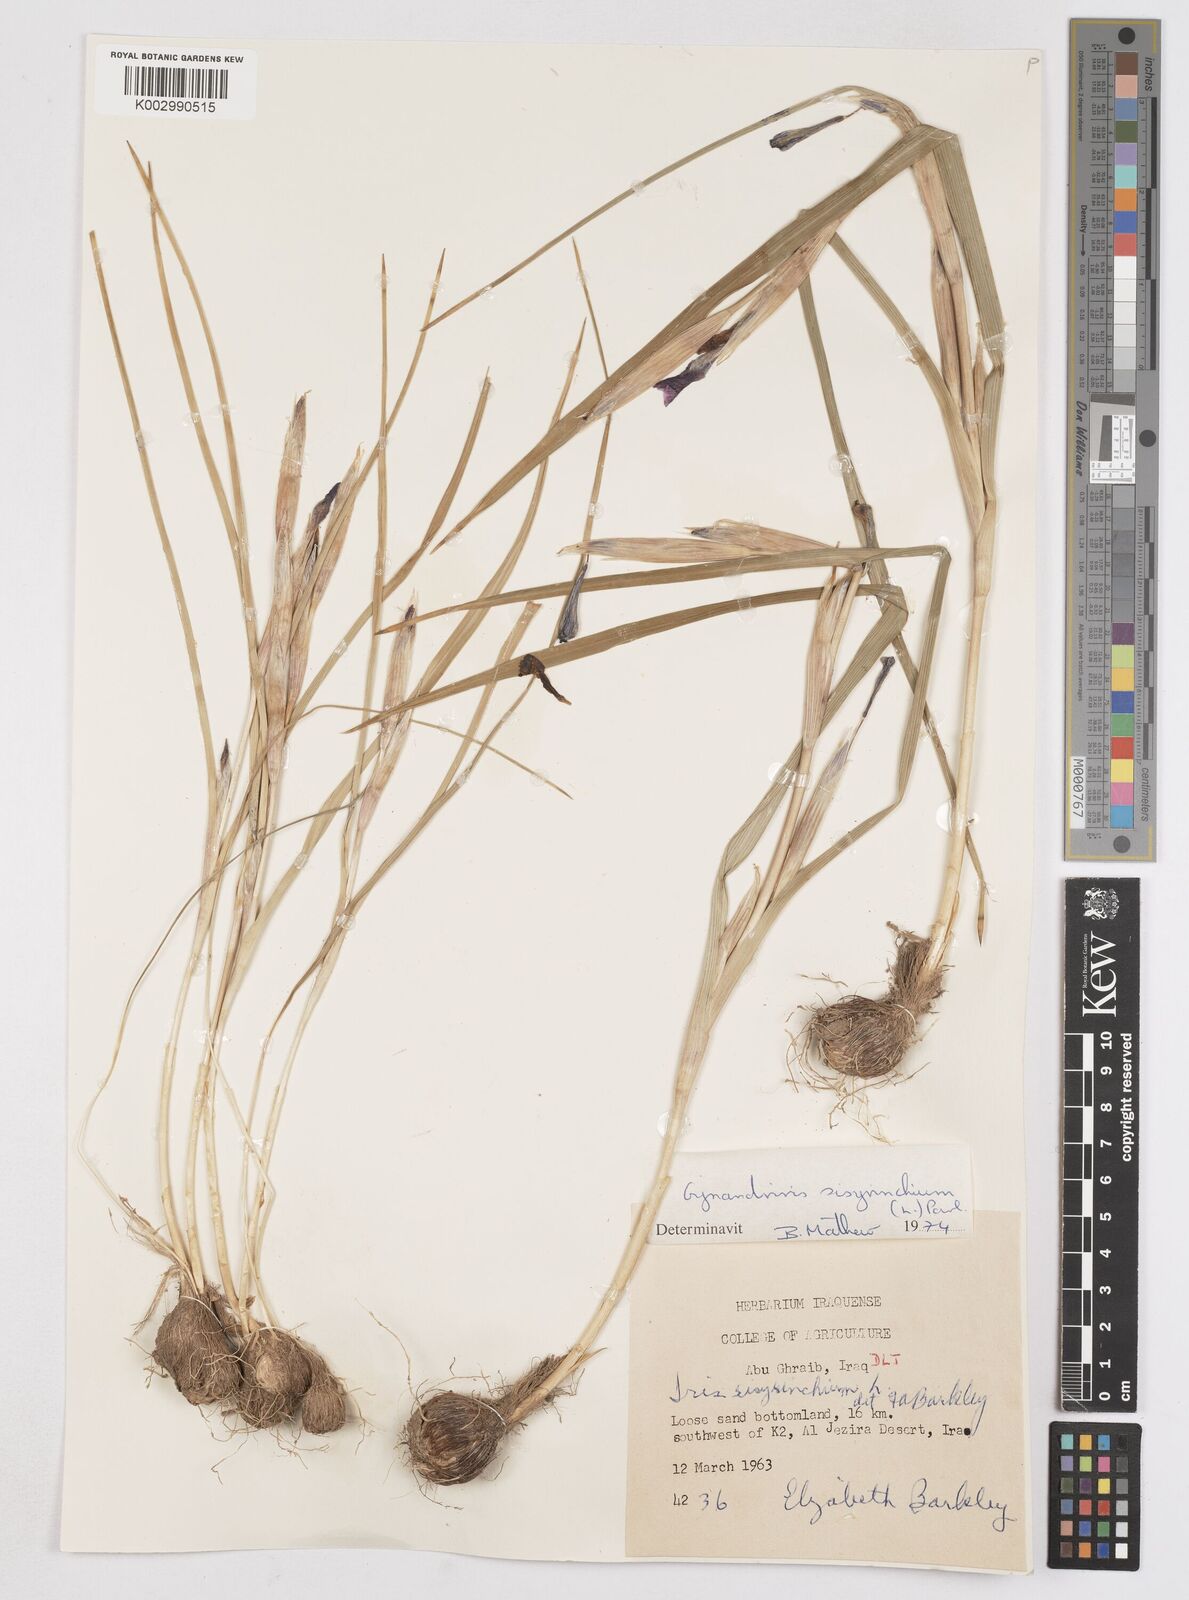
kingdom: Plantae
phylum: Tracheophyta
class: Liliopsida
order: Asparagales
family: Iridaceae
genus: Moraea
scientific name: Moraea sisyrinchium
